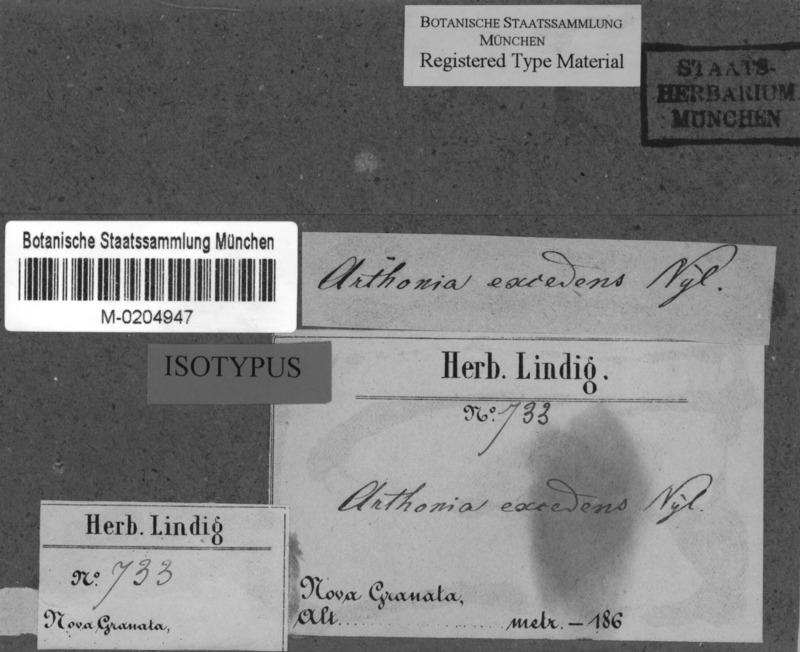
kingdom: Fungi
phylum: Ascomycota
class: Arthoniomycetes
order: Arthoniales
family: Arthoniaceae
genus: Arthonia
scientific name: Arthonia excedens
